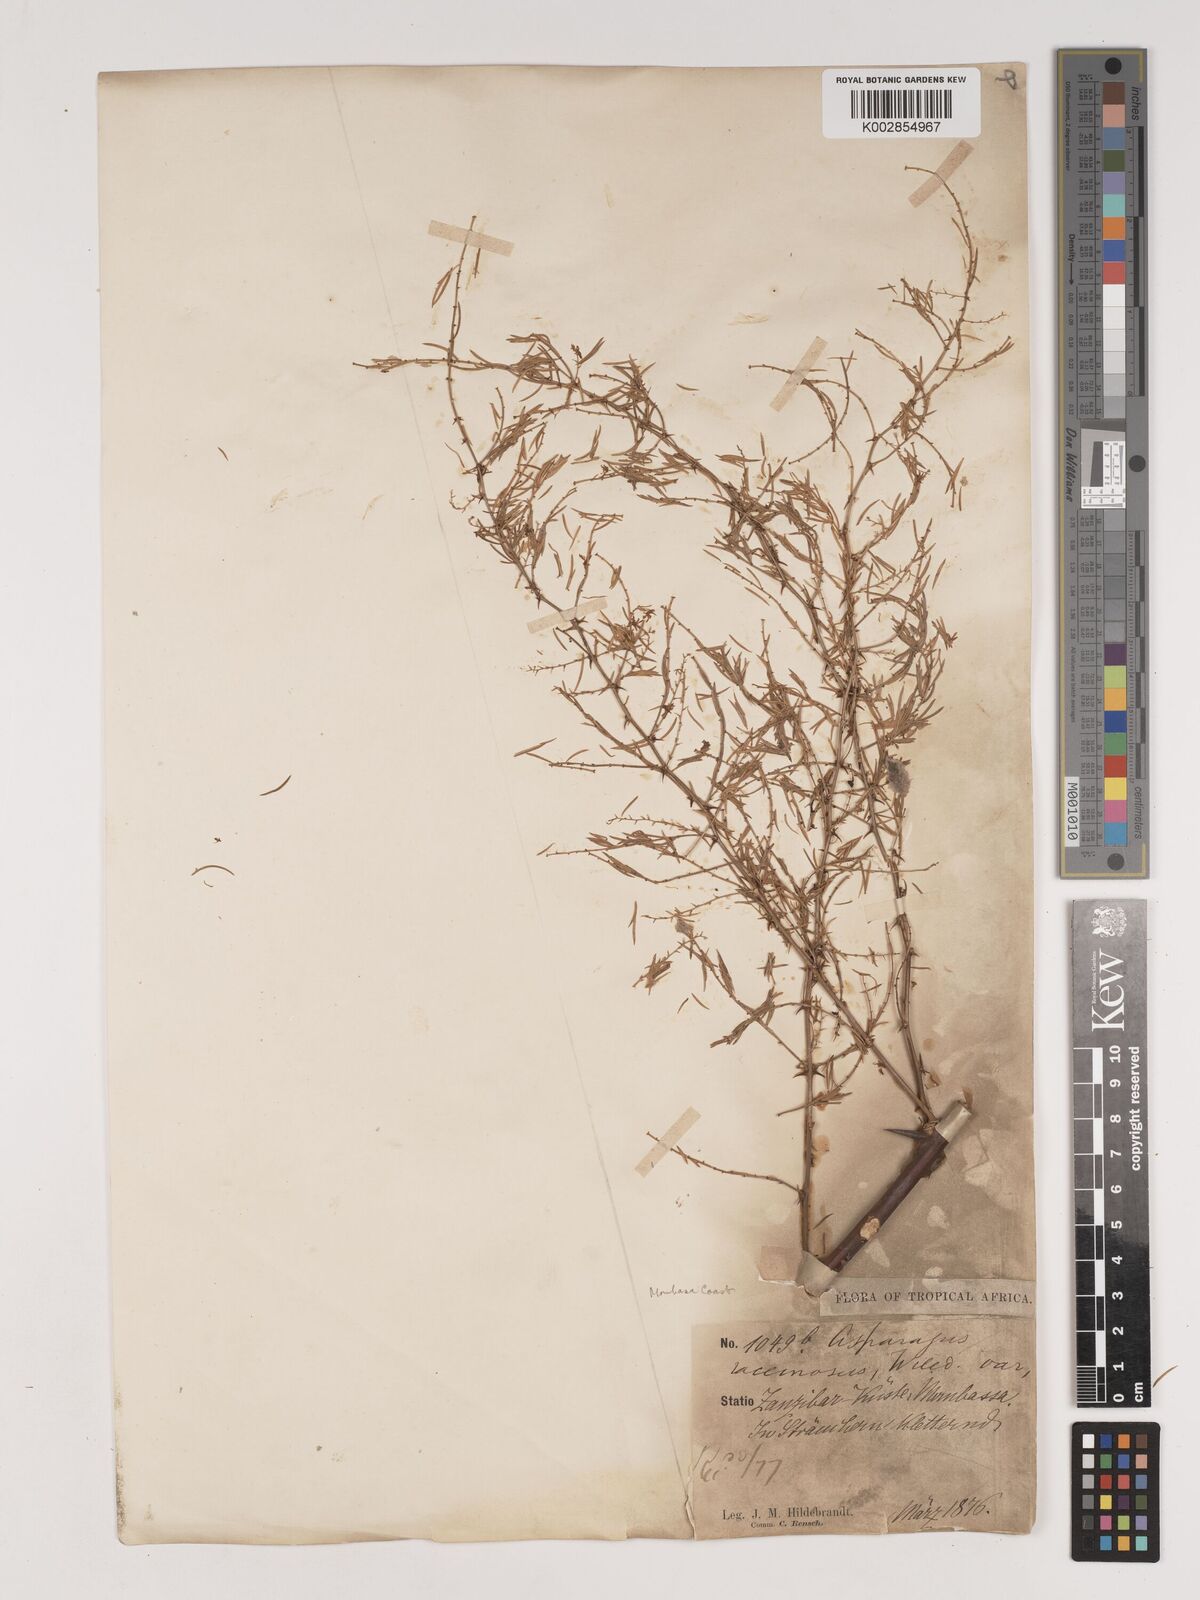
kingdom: Plantae
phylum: Tracheophyta
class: Liliopsida
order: Asparagales
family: Asparagaceae
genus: Asparagus
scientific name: Asparagus buchananii
